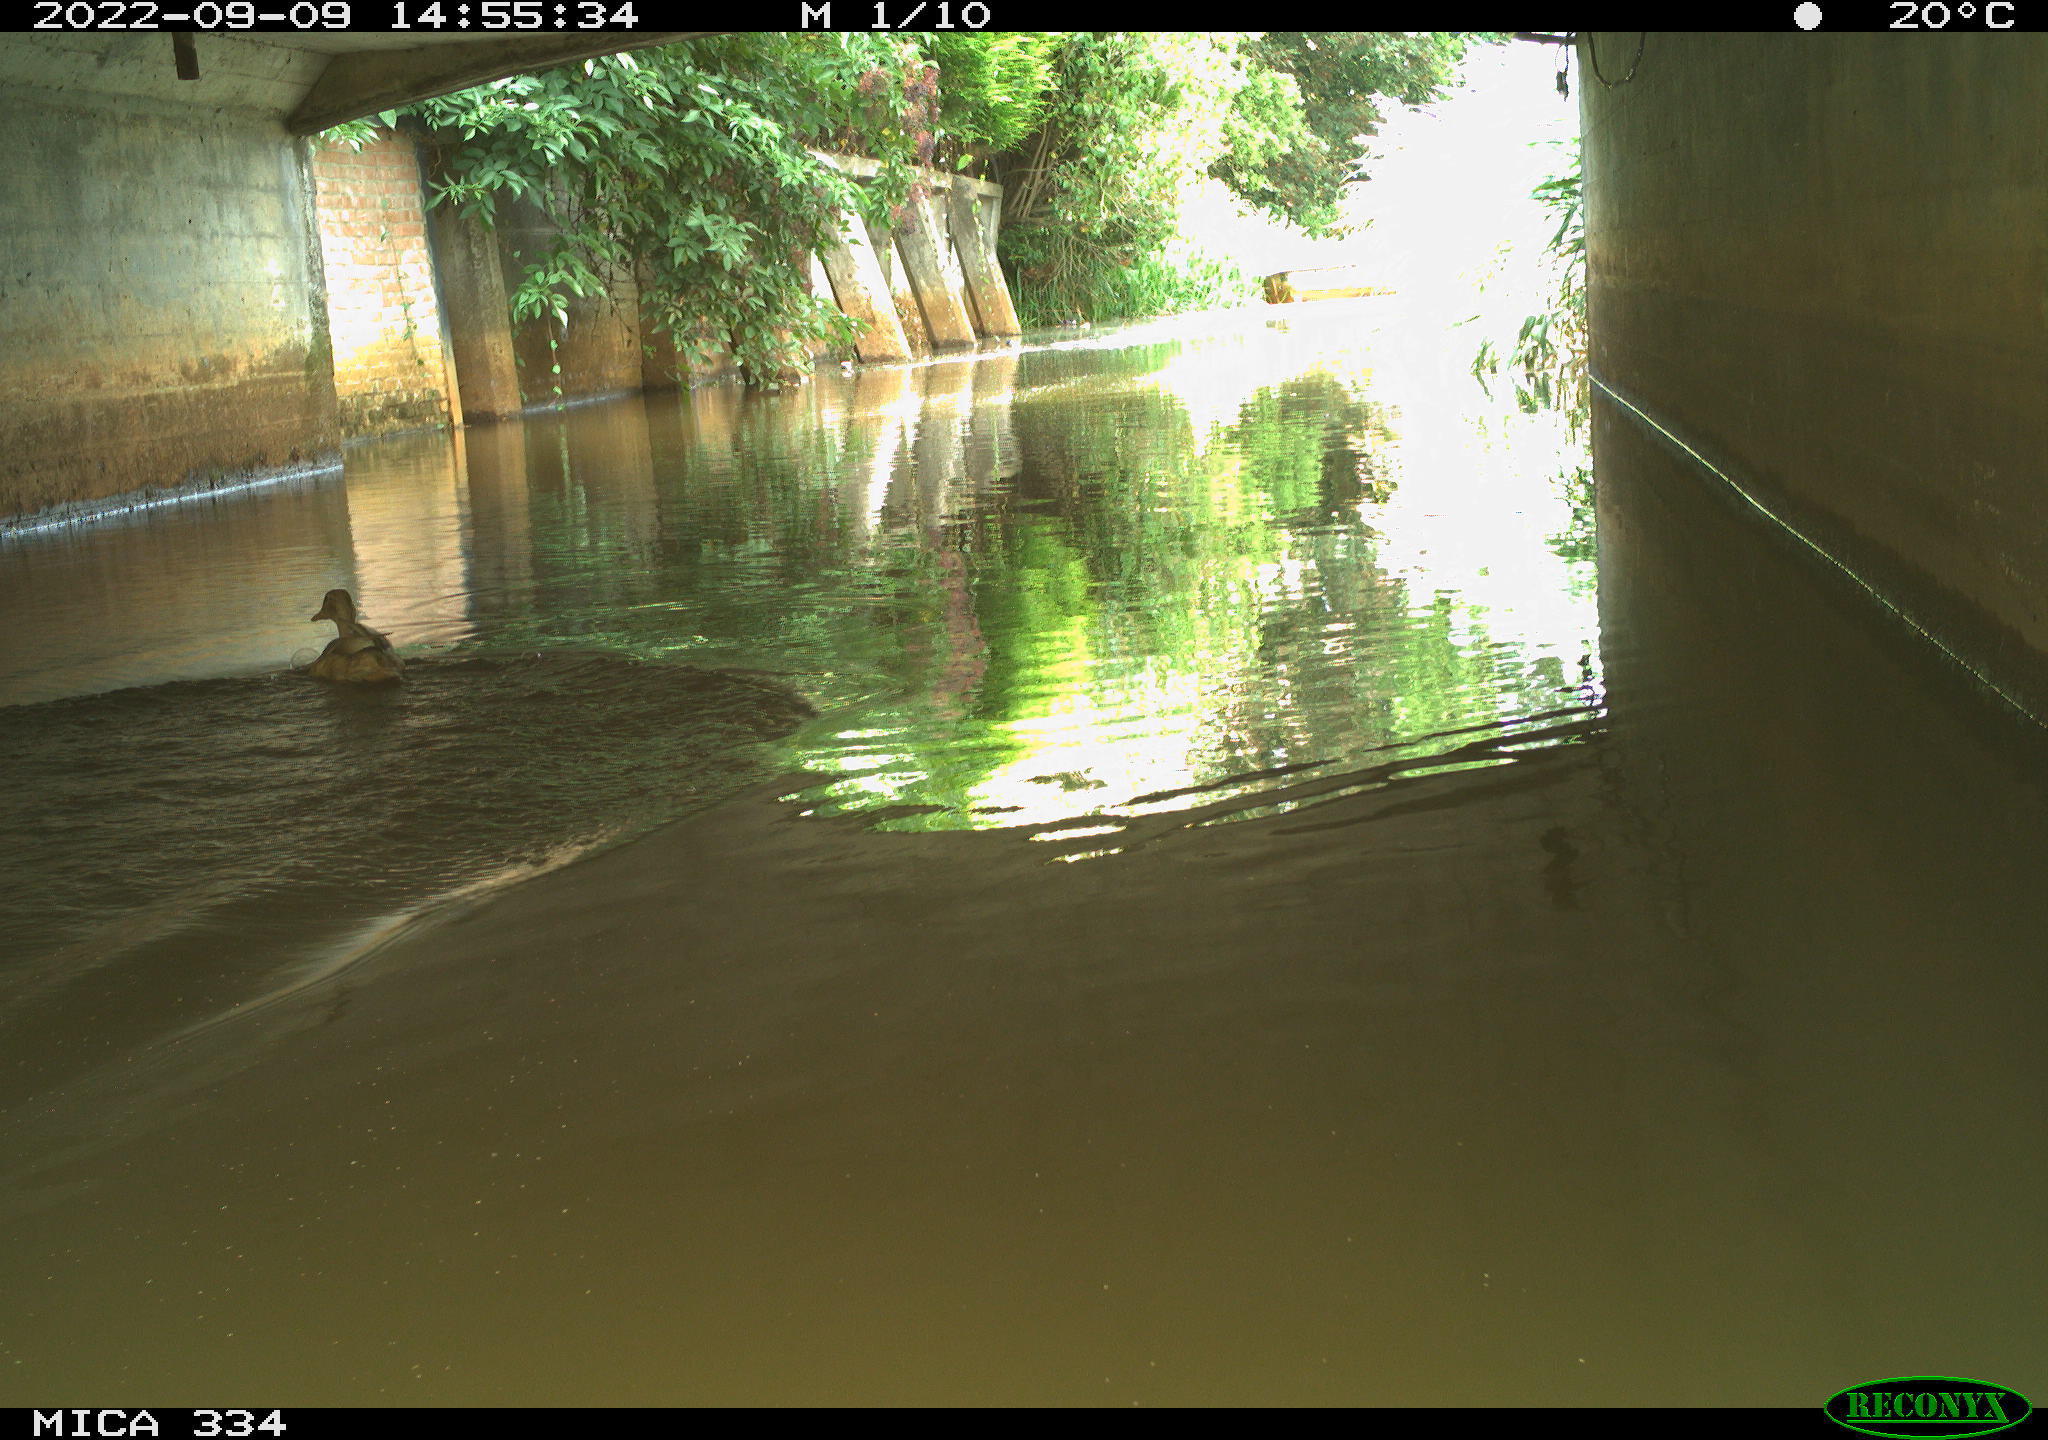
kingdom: Animalia
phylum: Chordata
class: Aves
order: Anseriformes
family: Anatidae
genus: Anas
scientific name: Anas platyrhynchos
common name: Mallard
